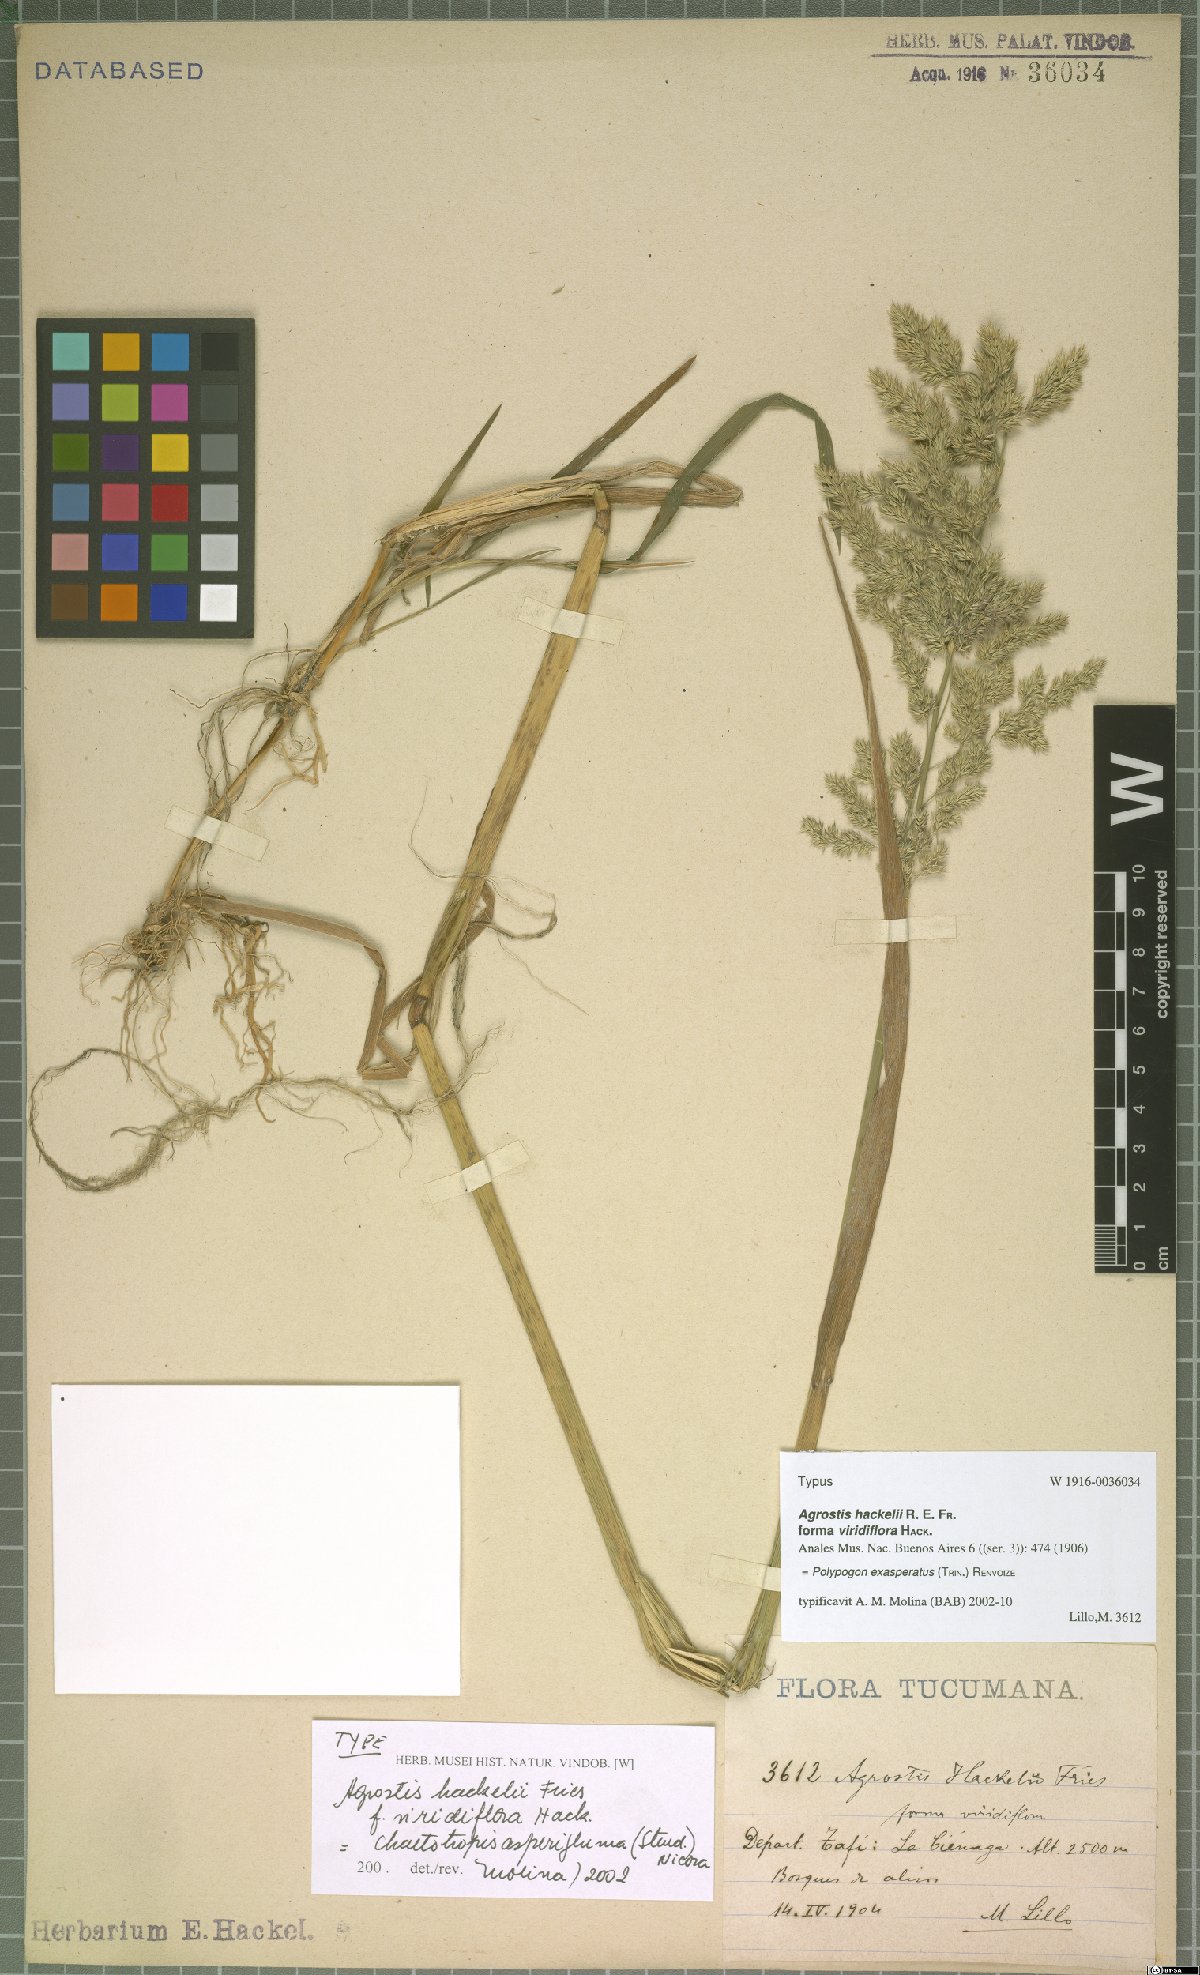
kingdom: Plantae
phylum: Tracheophyta
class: Liliopsida
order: Poales
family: Poaceae
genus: Polypogon
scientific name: Polypogon exasperatus
